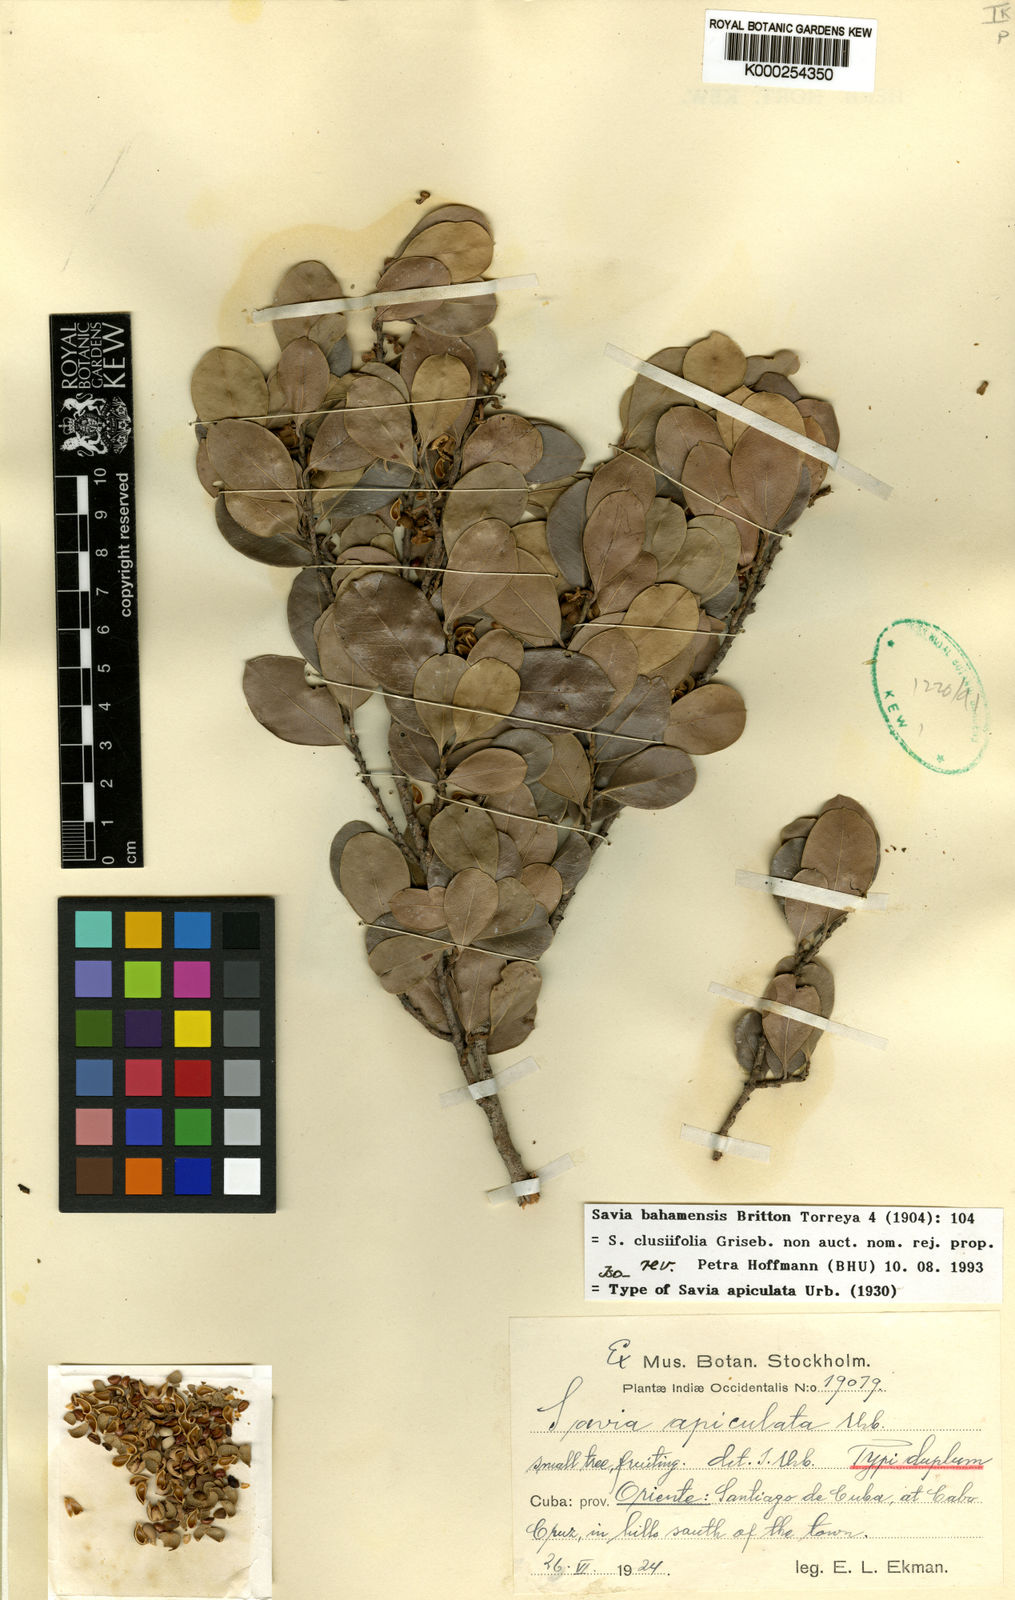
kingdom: Plantae
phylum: Tracheophyta
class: Magnoliopsida
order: Malpighiales
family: Phyllanthaceae
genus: Heterosavia
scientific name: Heterosavia bahamensis
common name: Bahama maidenbush
